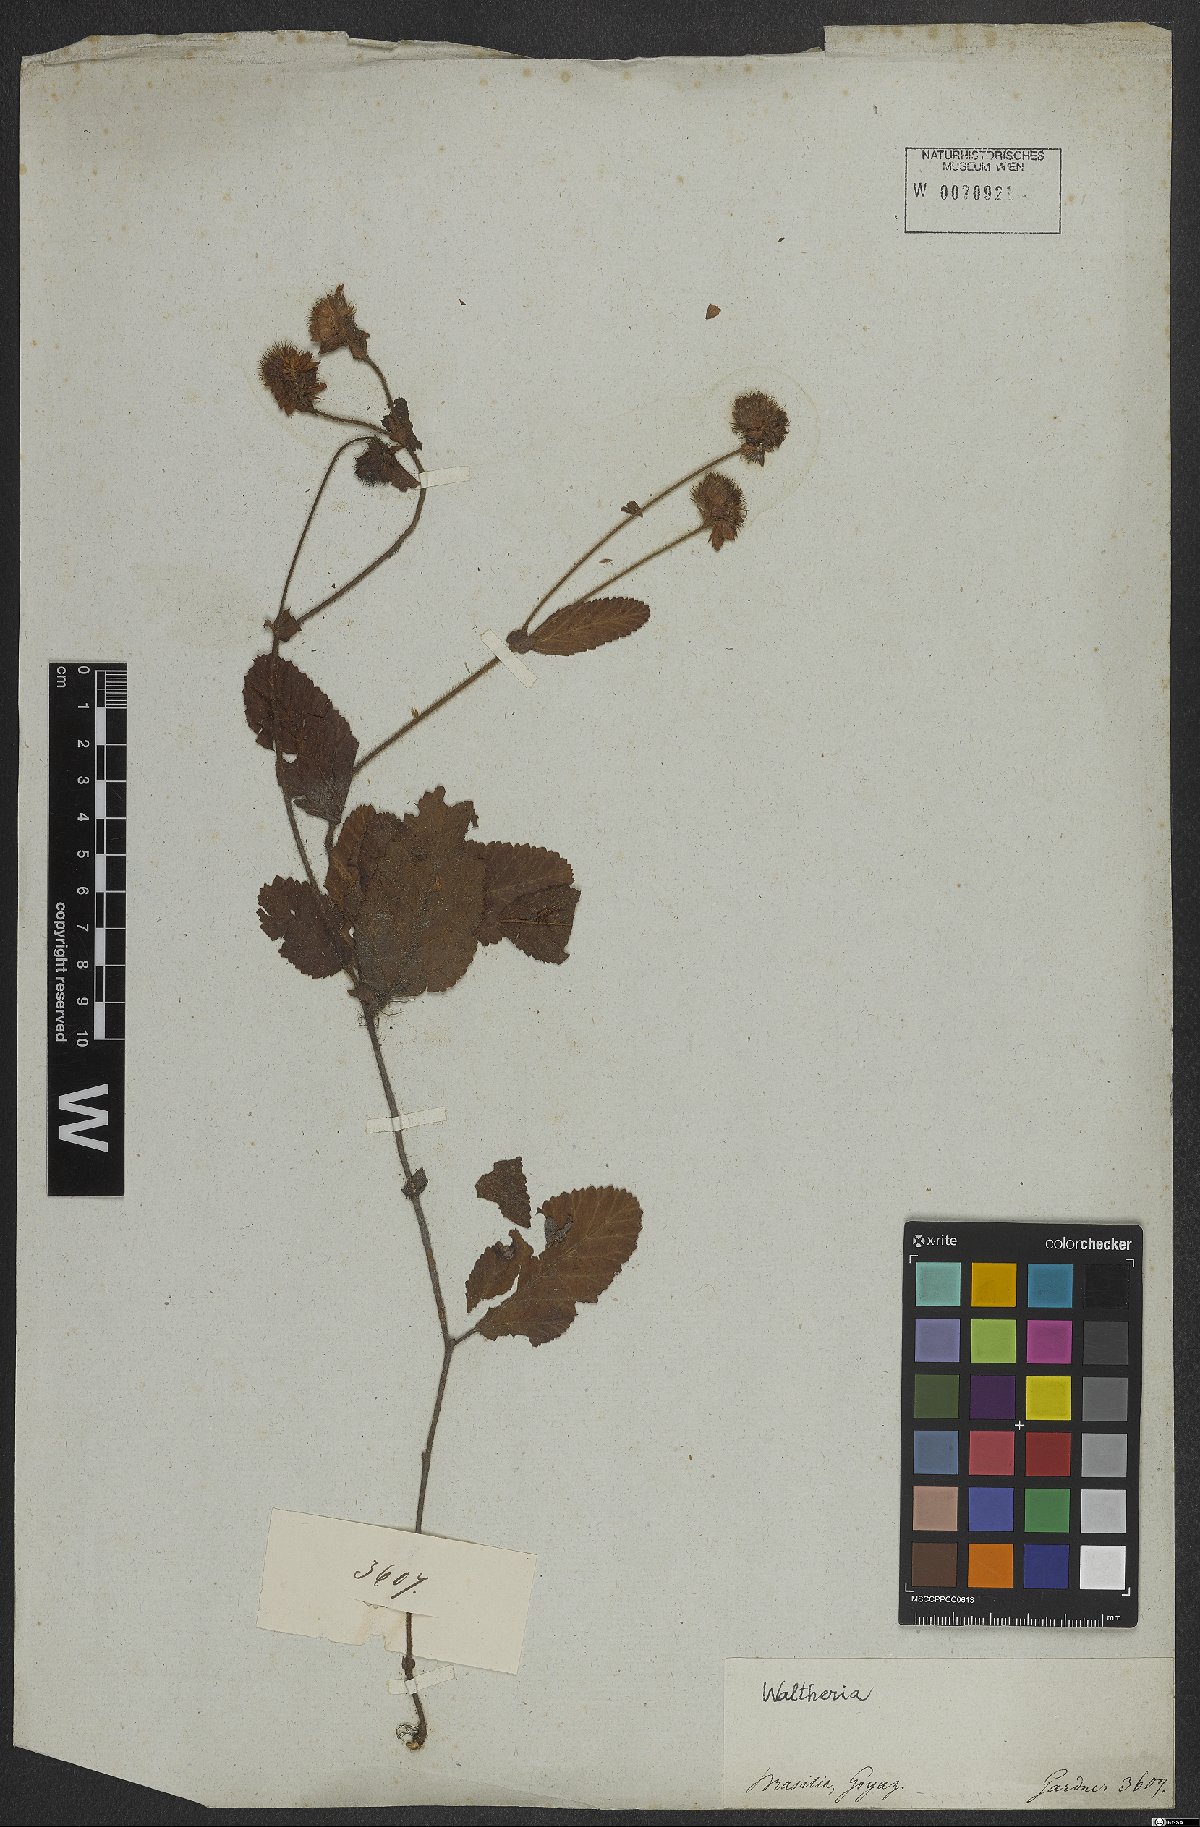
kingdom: Plantae
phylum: Tracheophyta
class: Magnoliopsida
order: Malvales
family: Malvaceae
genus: Waltheria
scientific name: Waltheria
